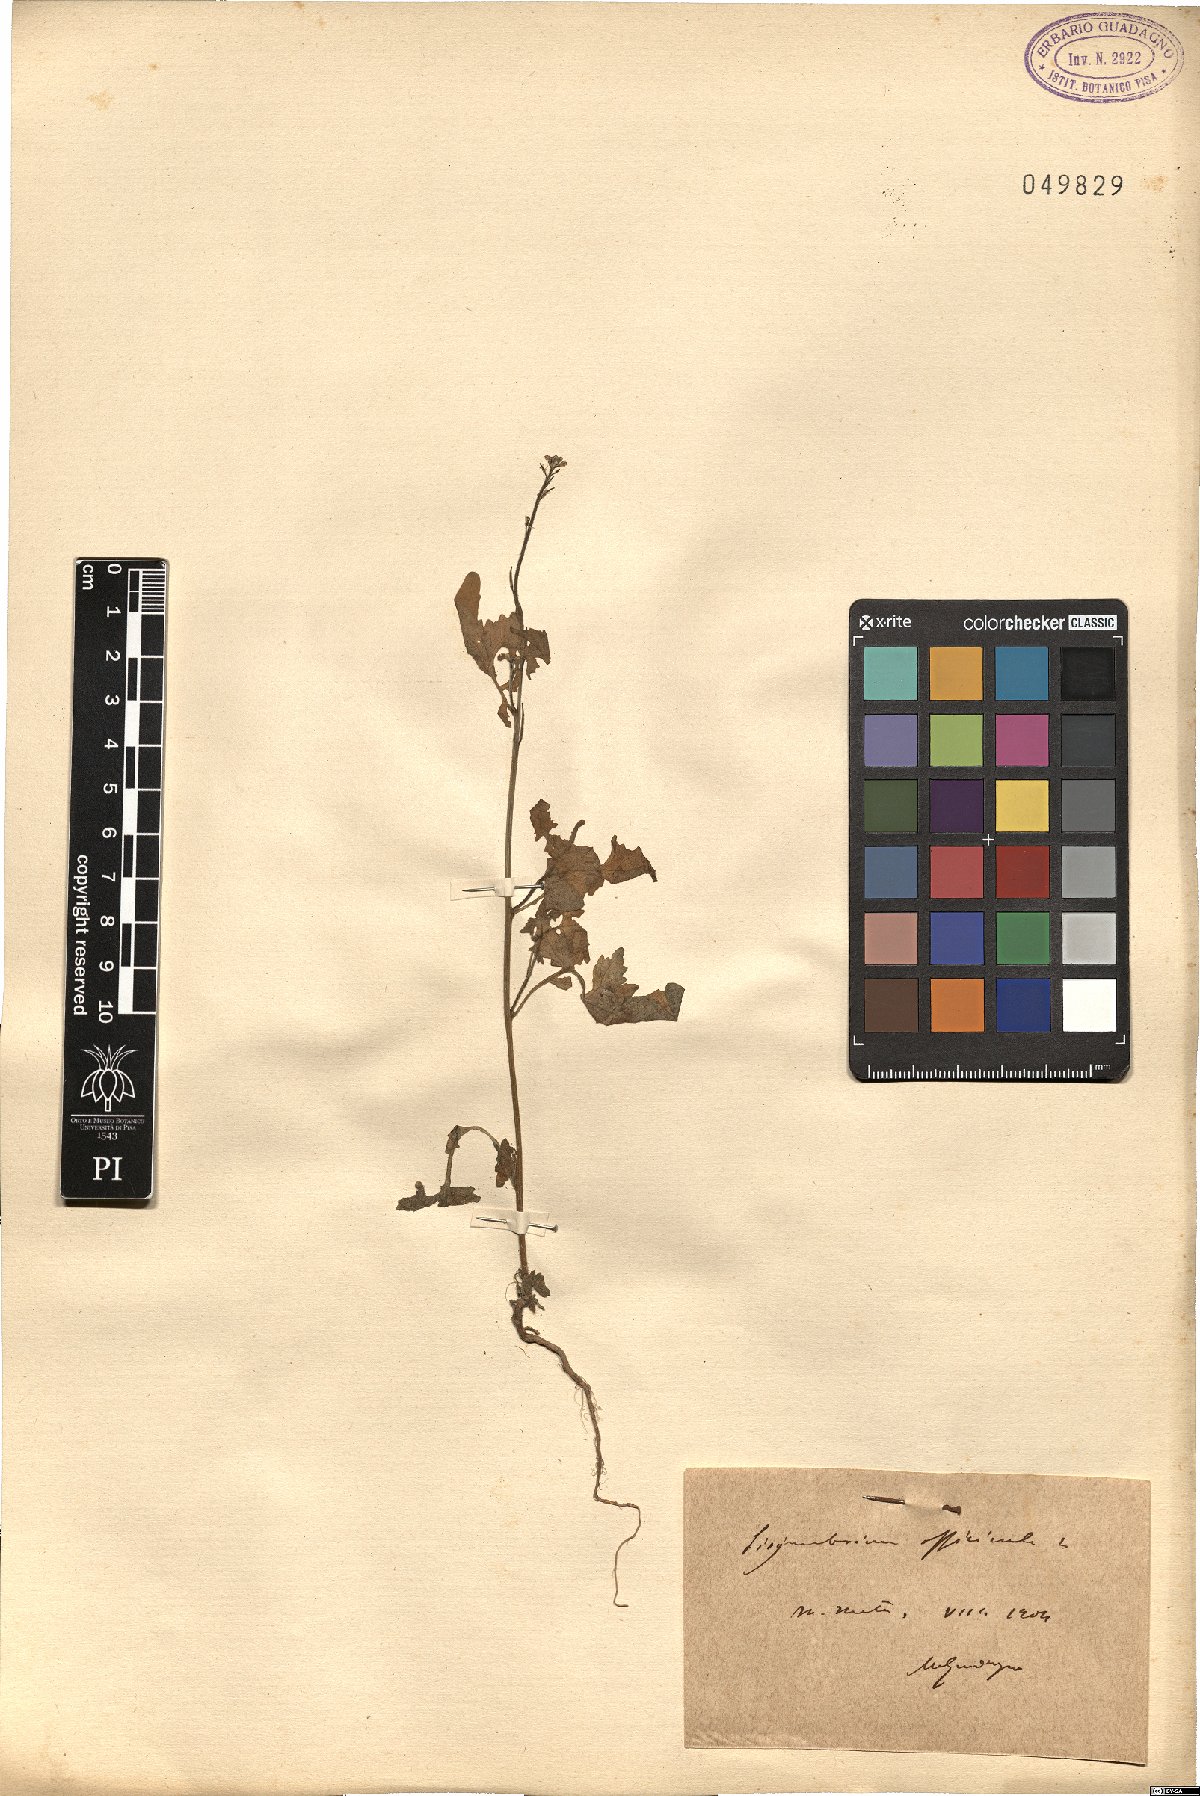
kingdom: Plantae
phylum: Tracheophyta
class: Magnoliopsida
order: Brassicales
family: Brassicaceae
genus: Sisymbrium
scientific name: Sisymbrium officinale
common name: Hedge mustard
